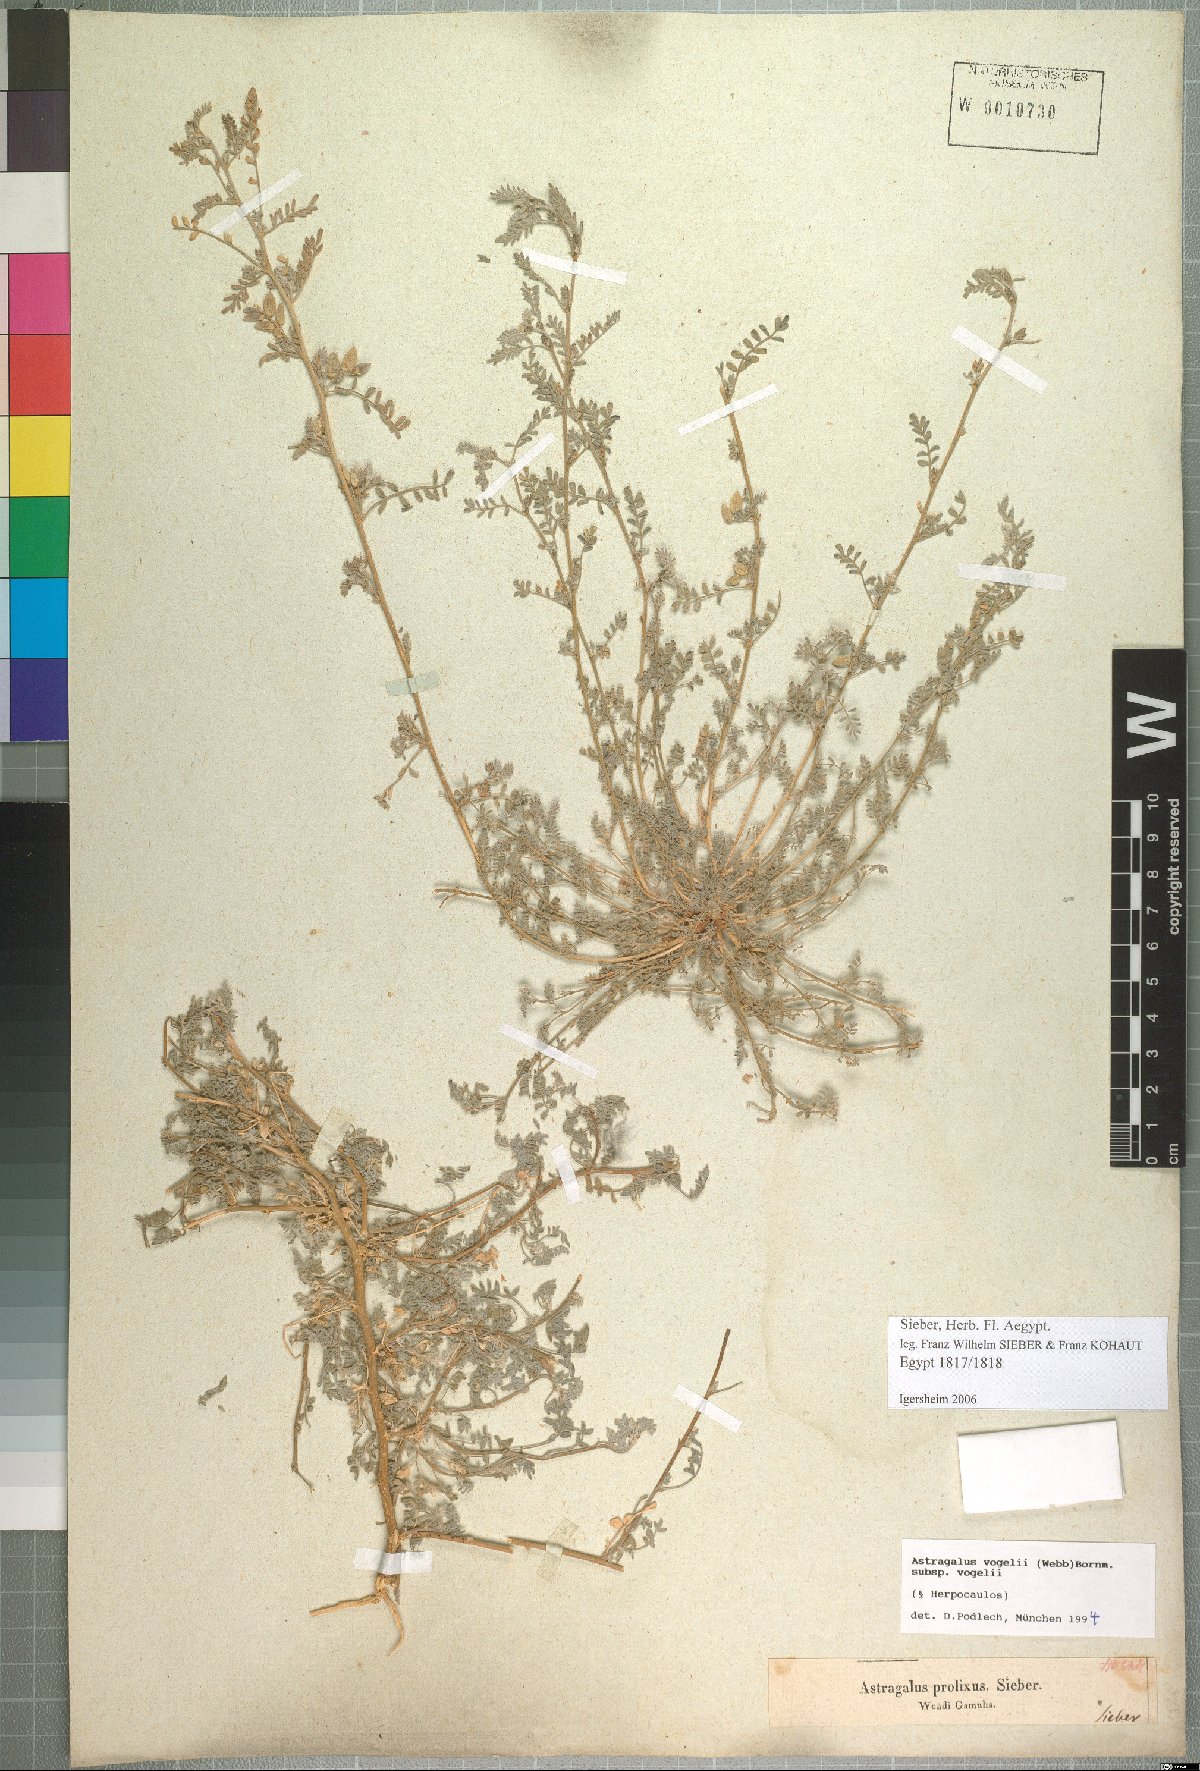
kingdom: Plantae
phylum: Tracheophyta
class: Magnoliopsida
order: Fabales
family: Fabaceae
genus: Astragalus
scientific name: Astragalus vogelii
